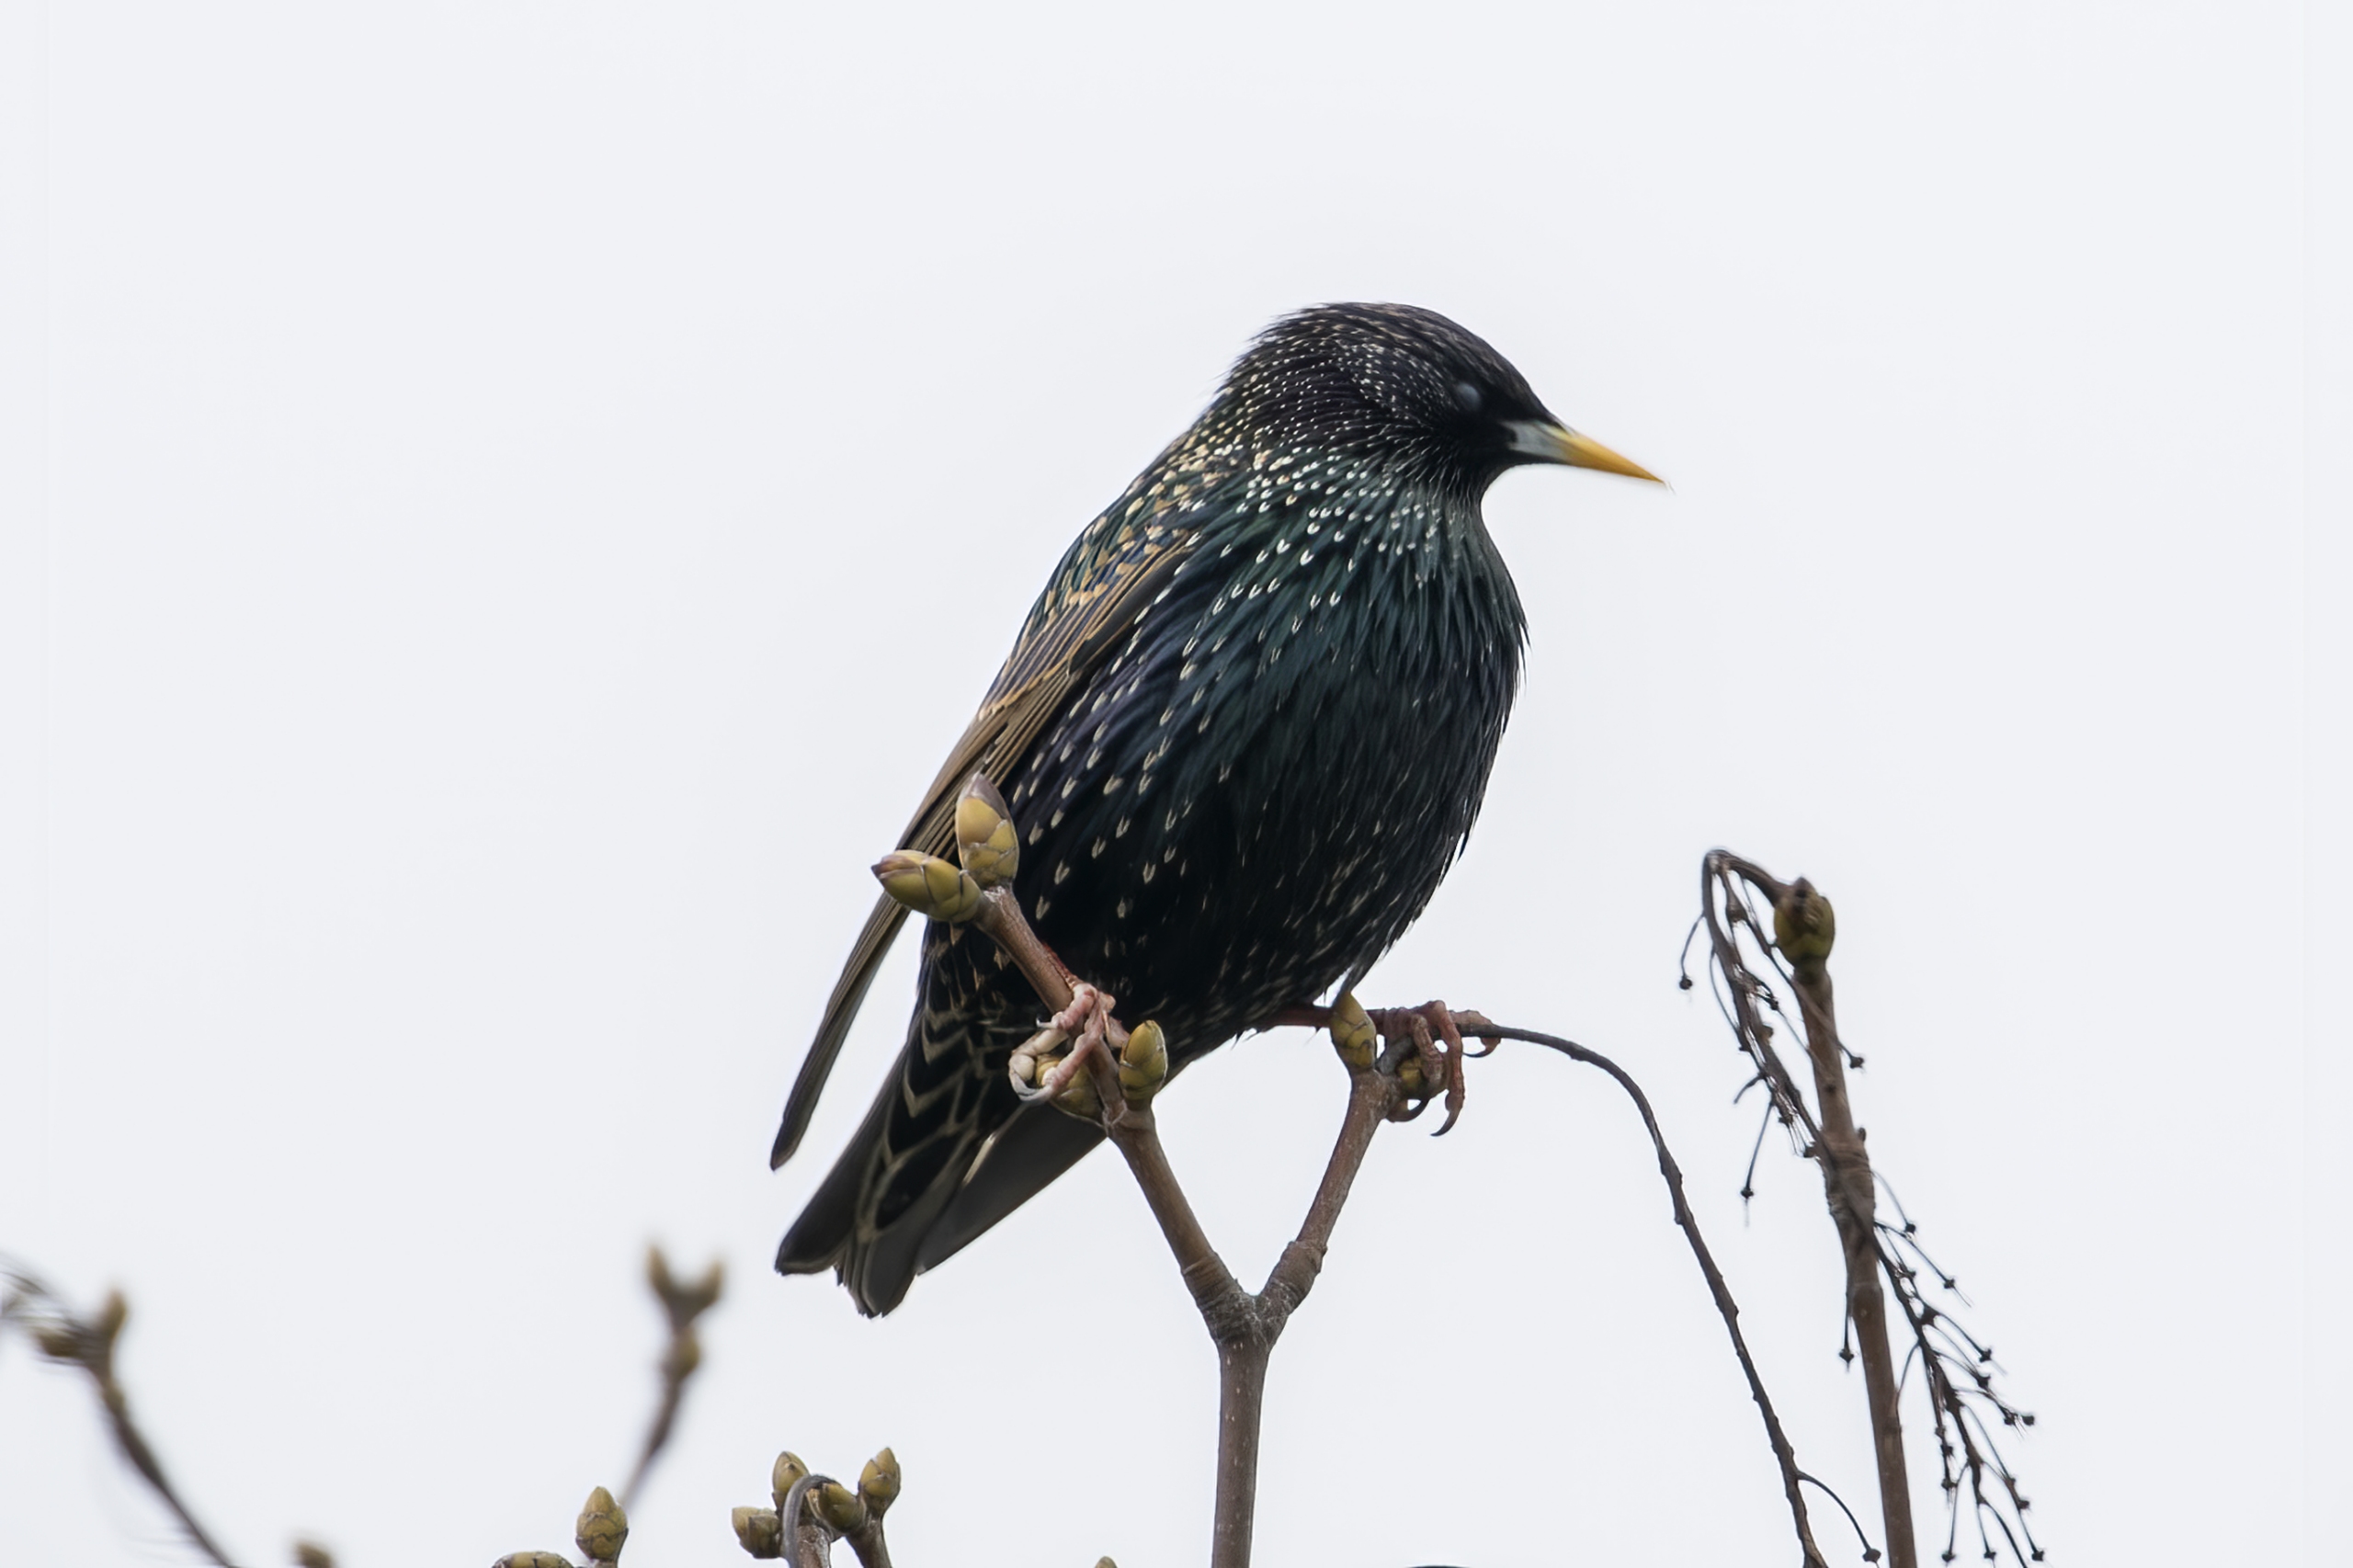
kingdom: Animalia
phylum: Chordata
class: Aves
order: Passeriformes
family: Sturnidae
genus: Sturnus
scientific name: Sturnus vulgaris
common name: Stær
